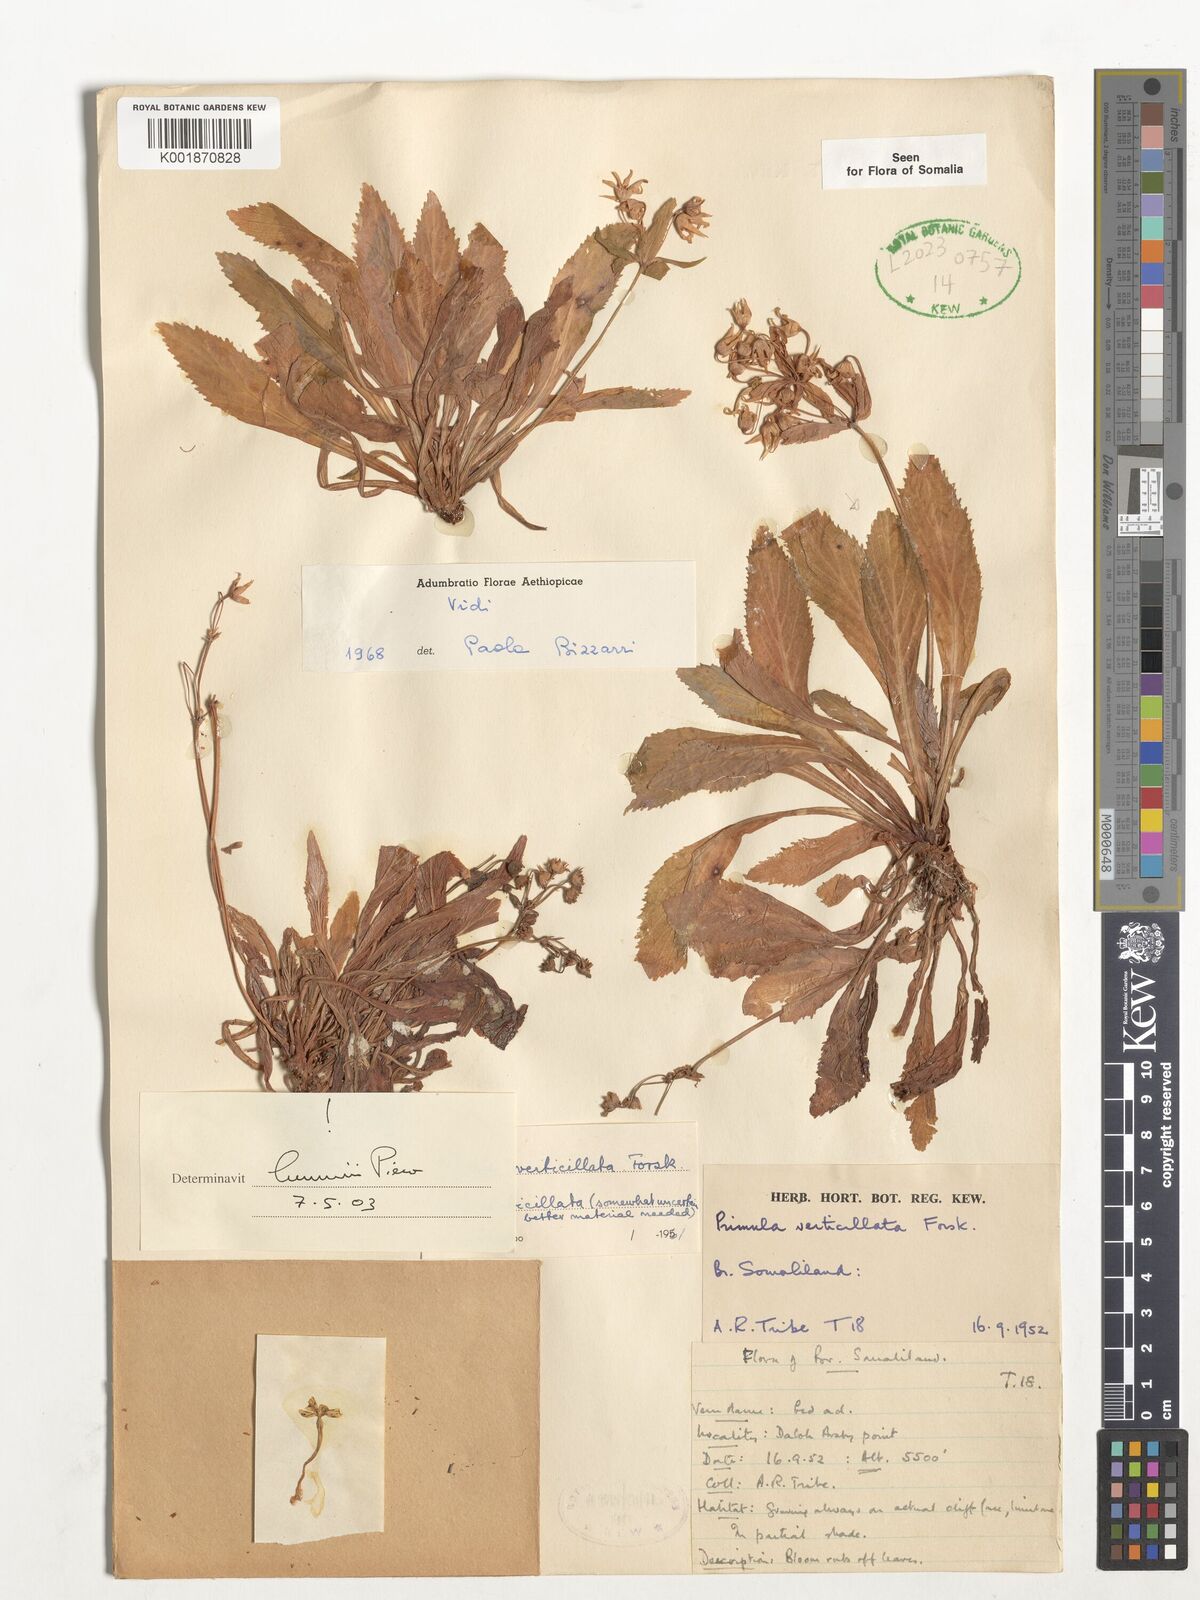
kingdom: Plantae
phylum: Tracheophyta
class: Magnoliopsida
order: Ericales
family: Primulaceae
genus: Evotrochis
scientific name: Evotrochis verticillata
